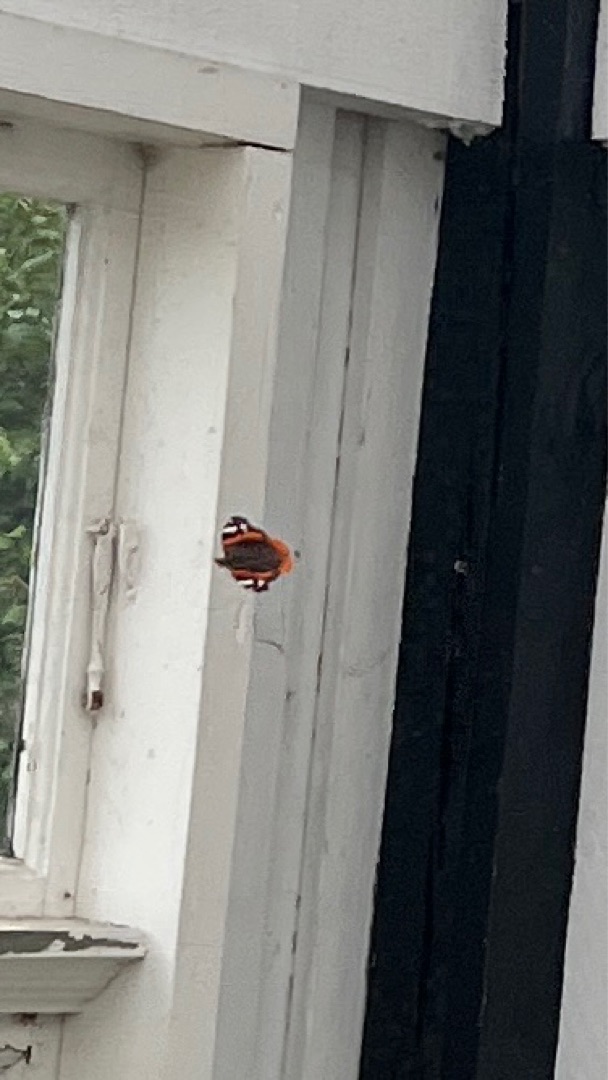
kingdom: Animalia
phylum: Arthropoda
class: Insecta
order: Lepidoptera
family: Nymphalidae
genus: Vanessa
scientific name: Vanessa atalanta
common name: Admiral
